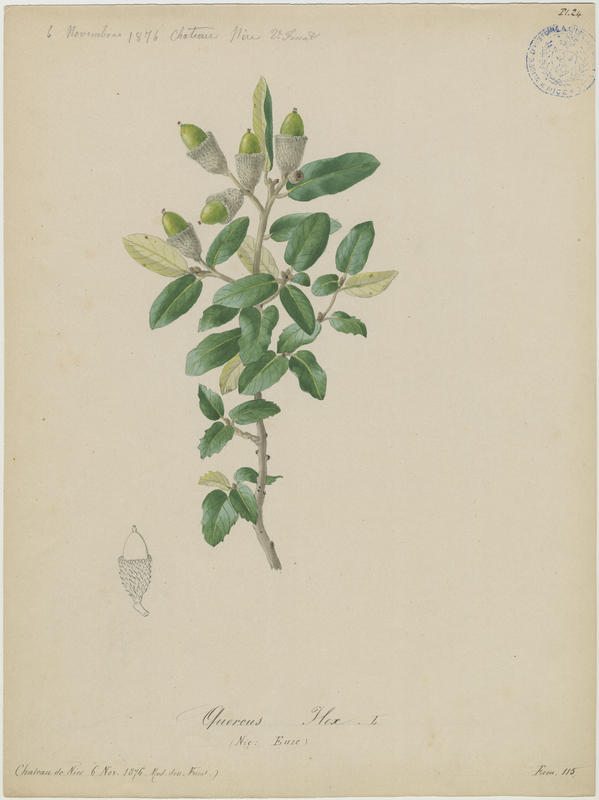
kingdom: Plantae
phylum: Tracheophyta
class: Magnoliopsida
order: Fagales
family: Fagaceae
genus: Quercus
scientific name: Quercus ilex
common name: Evergreen oak
